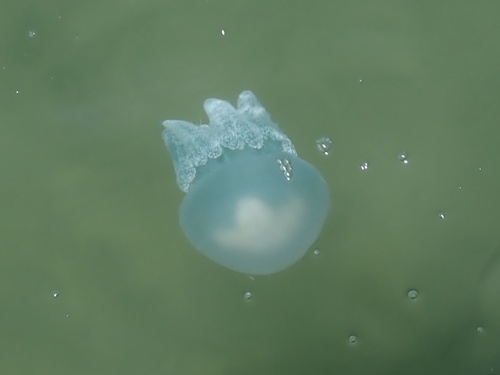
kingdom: Animalia
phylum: Cnidaria
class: Scyphozoa
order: Rhizostomeae
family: Catostylidae
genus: Acromitus
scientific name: Acromitus flagellatus
